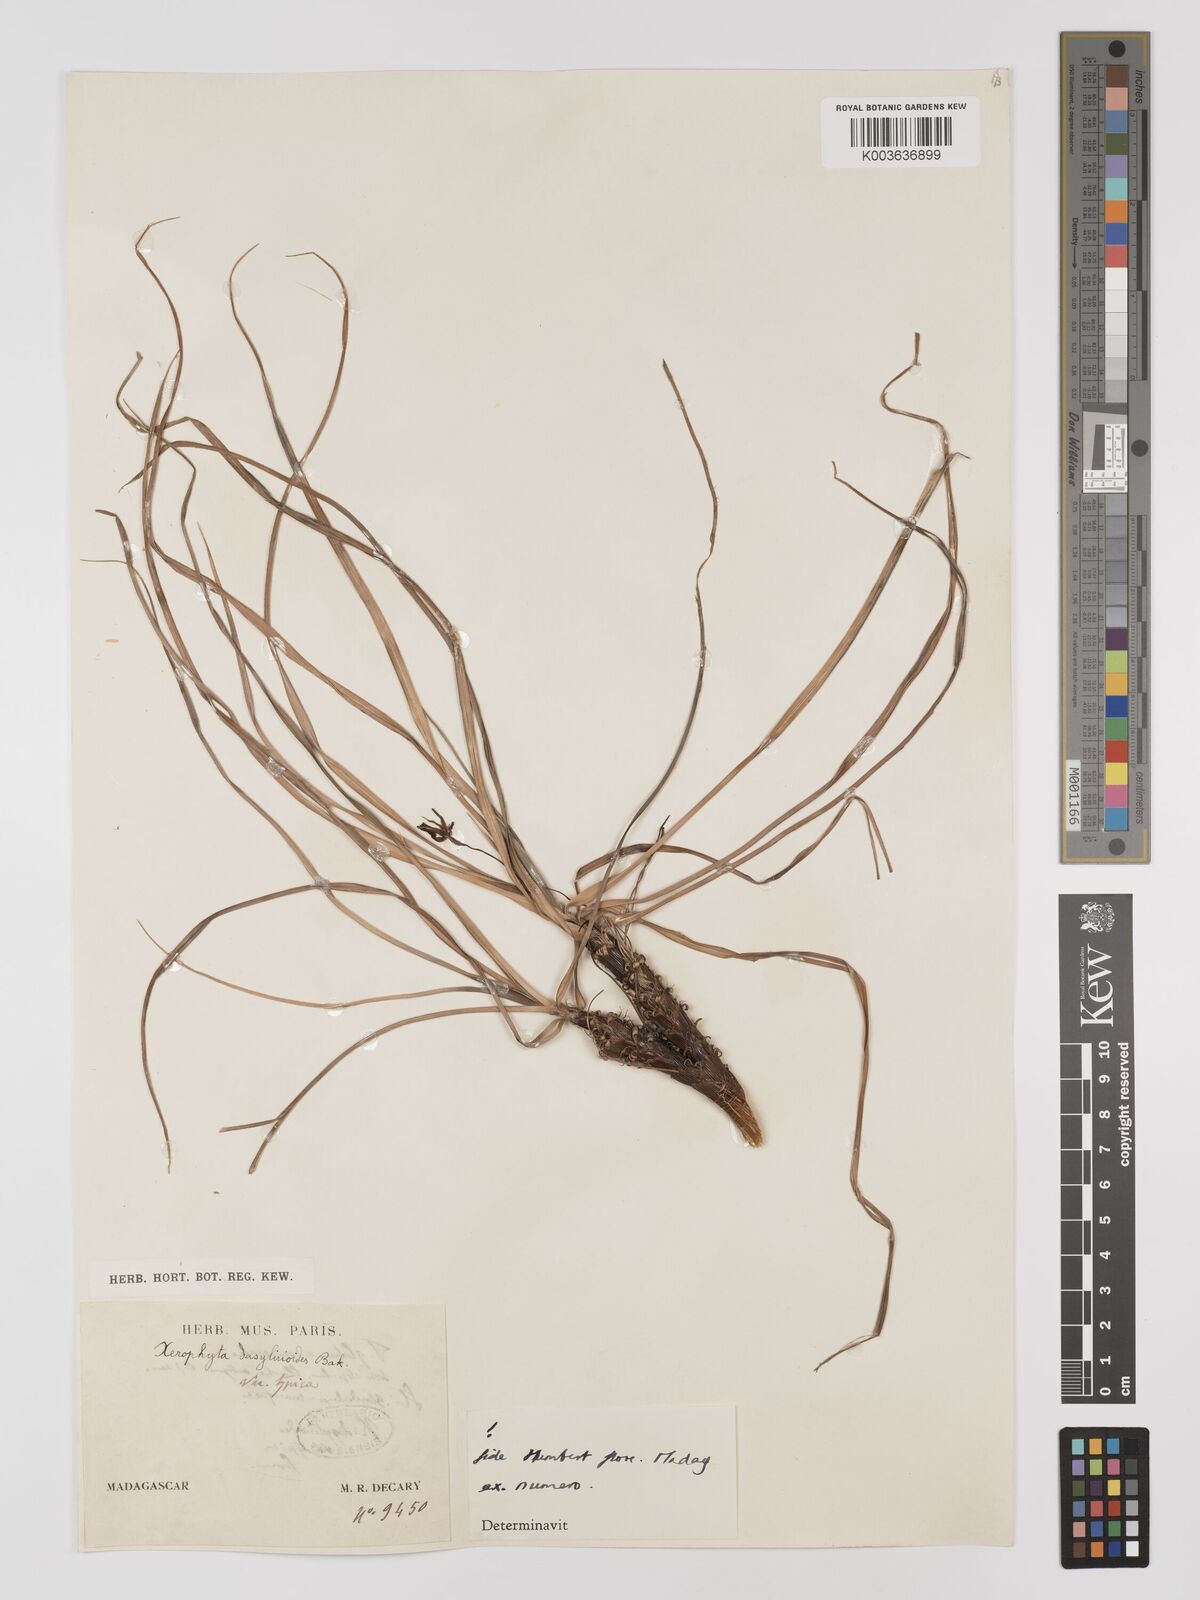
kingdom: Plantae
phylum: Tracheophyta
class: Liliopsida
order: Pandanales
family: Velloziaceae
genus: Xerophyta
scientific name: Xerophyta dasylirioides
